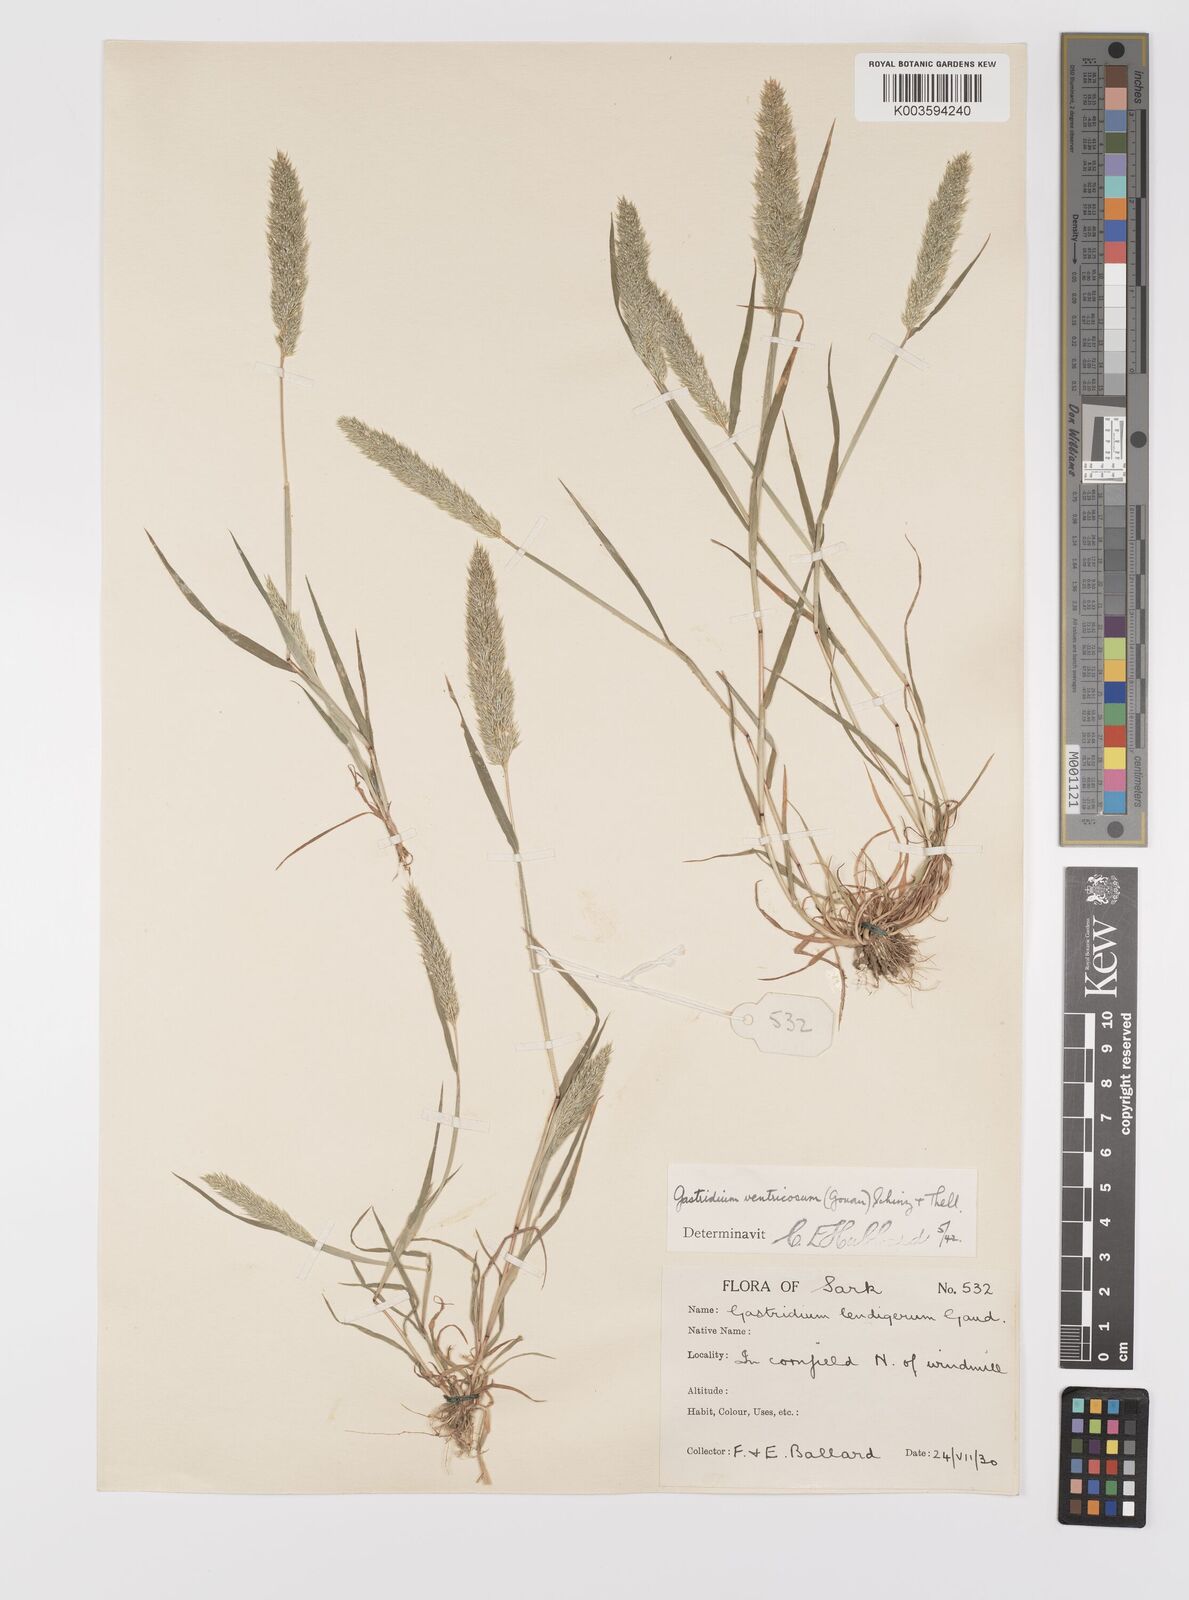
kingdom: Plantae
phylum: Tracheophyta
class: Liliopsida
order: Poales
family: Poaceae
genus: Gastridium
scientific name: Gastridium ventricosum
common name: Nit-grass
